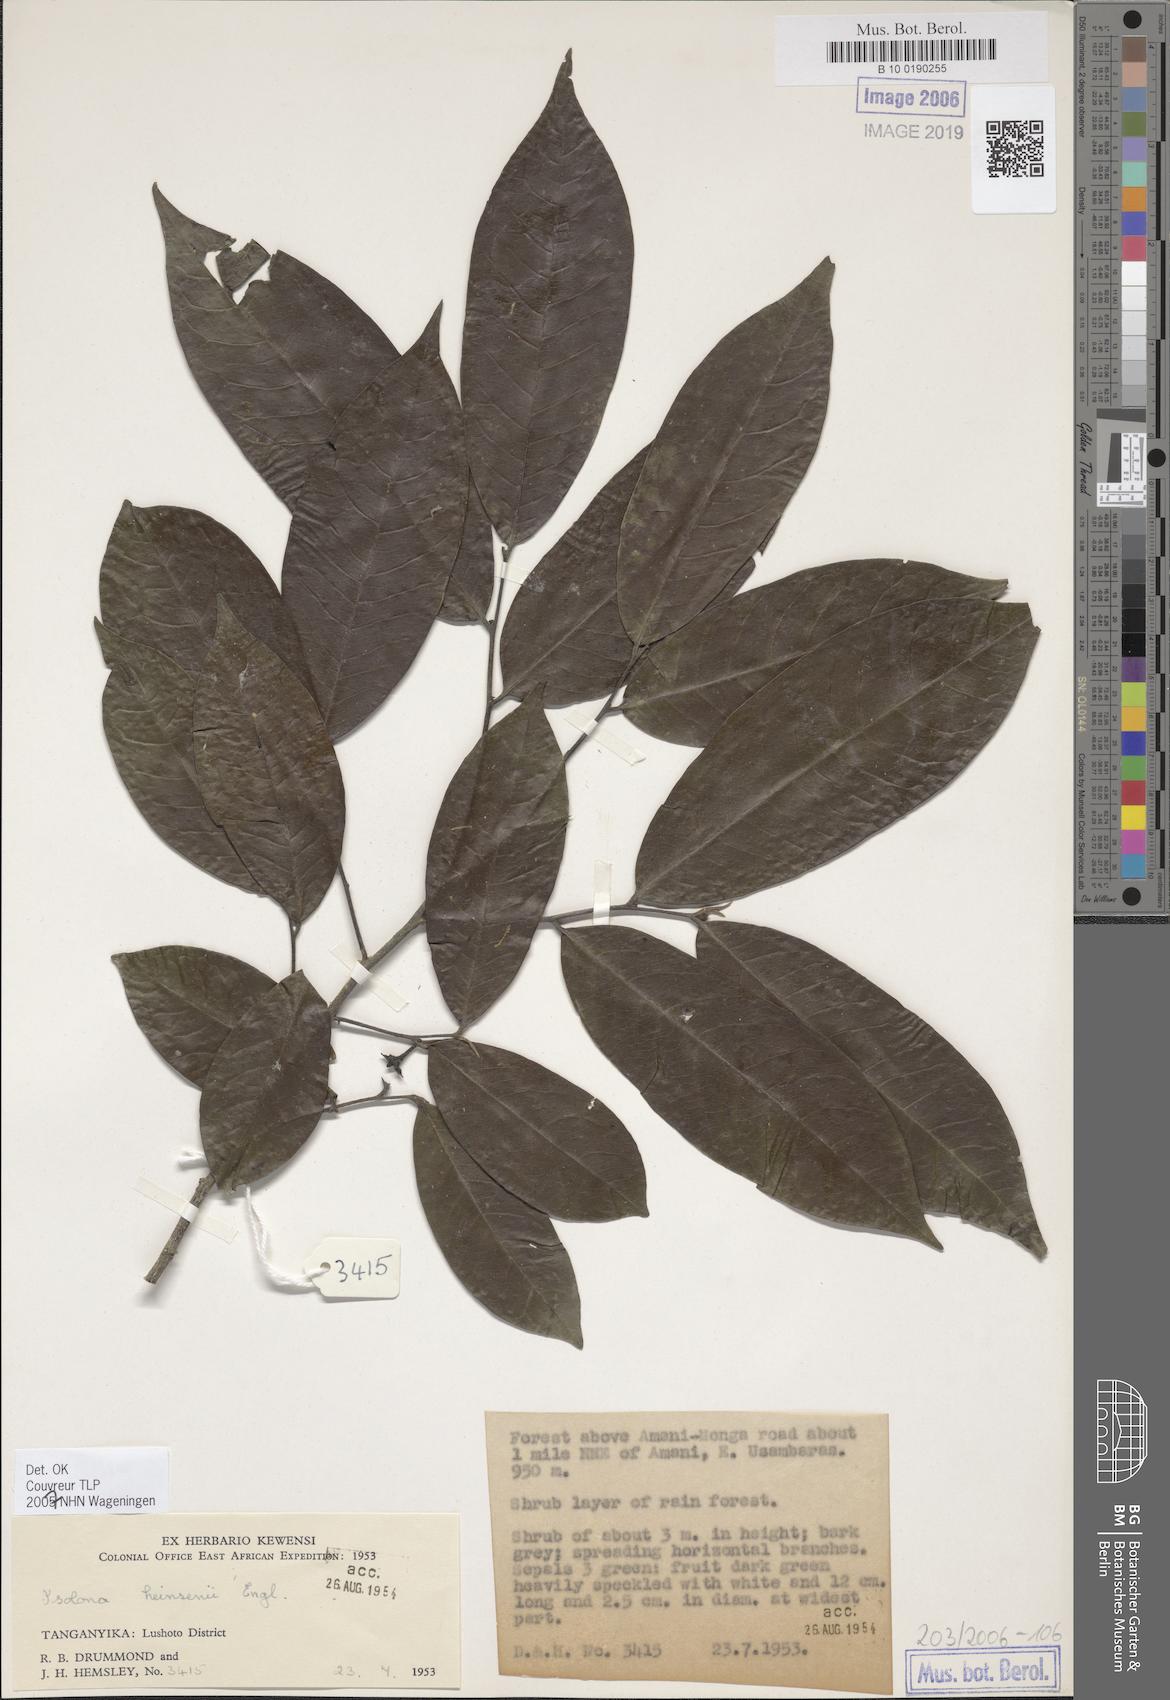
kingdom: Plantae
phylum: Tracheophyta
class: Magnoliopsida
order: Magnoliales
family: Annonaceae
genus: Isolona
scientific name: Isolona heinsenii
